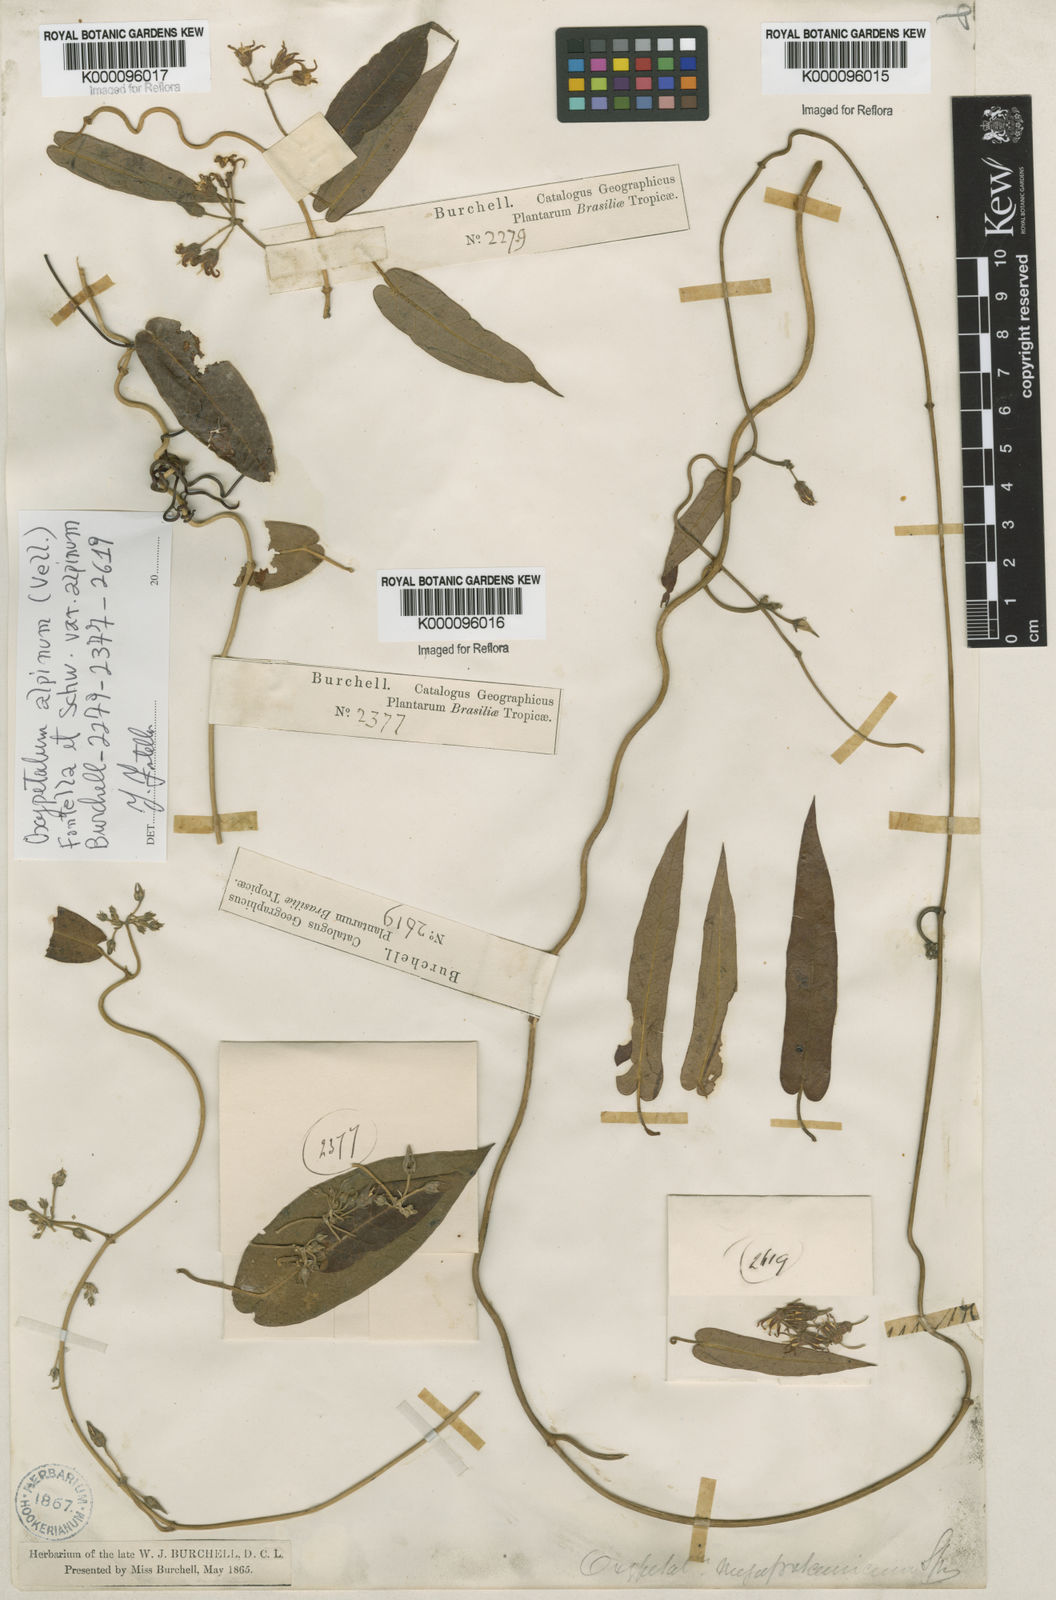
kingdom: Plantae
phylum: Tracheophyta
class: Magnoliopsida
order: Gentianales
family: Apocynaceae
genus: Oxypetalum
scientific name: Oxypetalum alpinum
